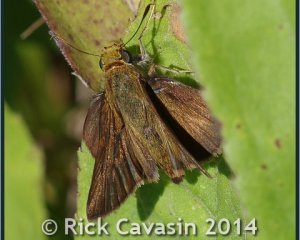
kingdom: Animalia
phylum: Arthropoda
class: Insecta
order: Lepidoptera
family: Hesperiidae
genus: Euphyes
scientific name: Euphyes vestris
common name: Dun Skipper
